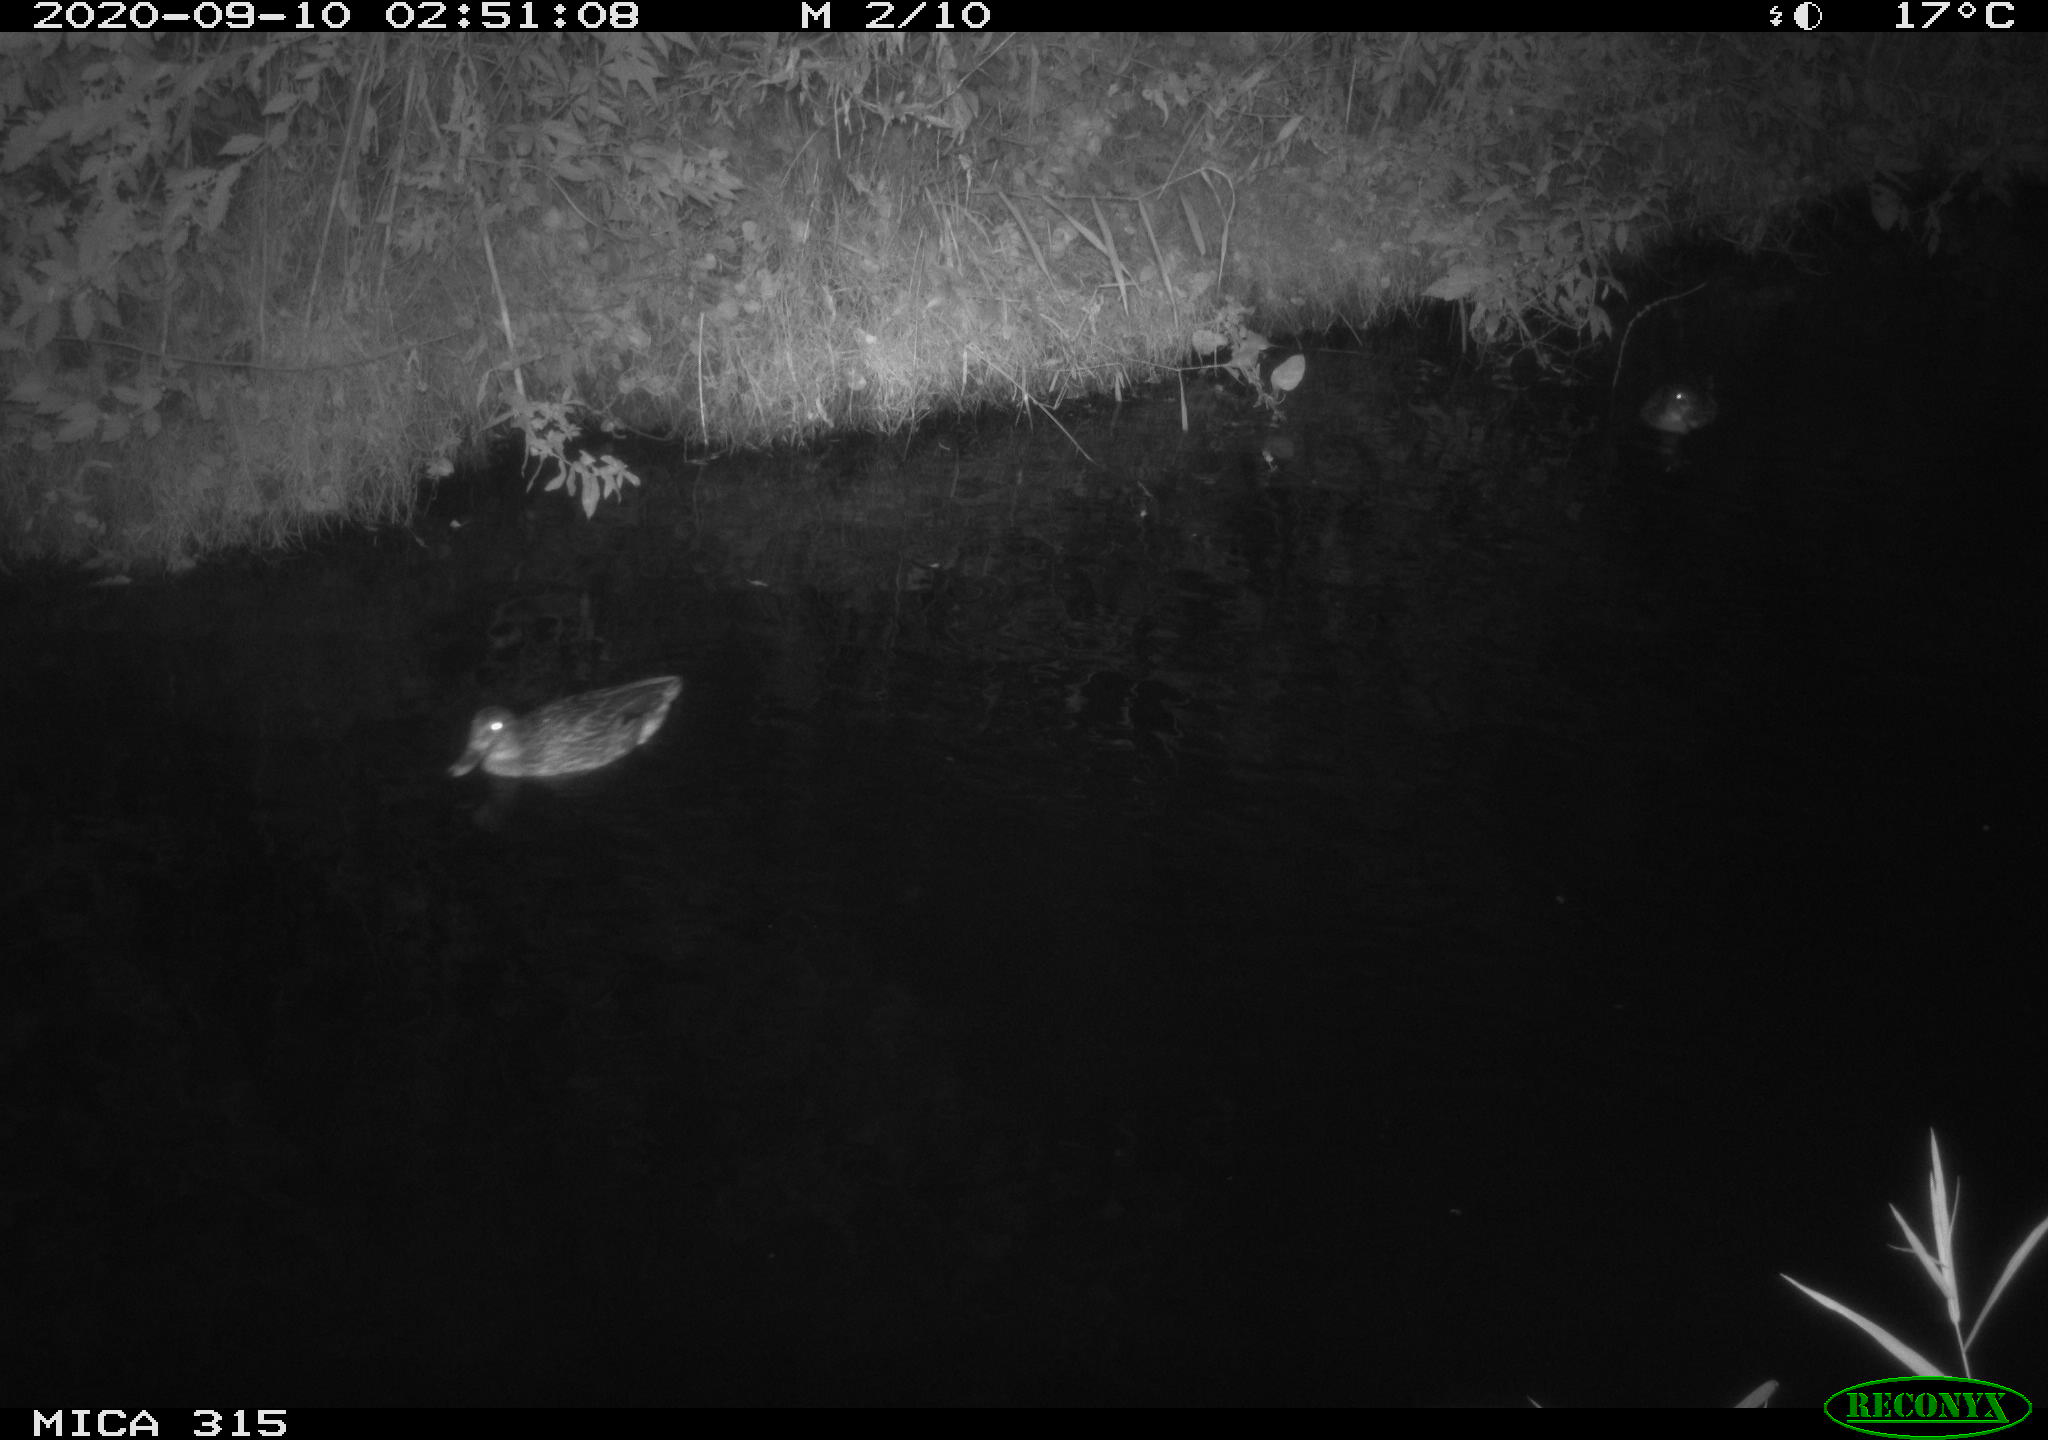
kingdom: Animalia
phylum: Chordata
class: Aves
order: Anseriformes
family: Anatidae
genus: Anas
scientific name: Anas platyrhynchos
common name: Mallard
